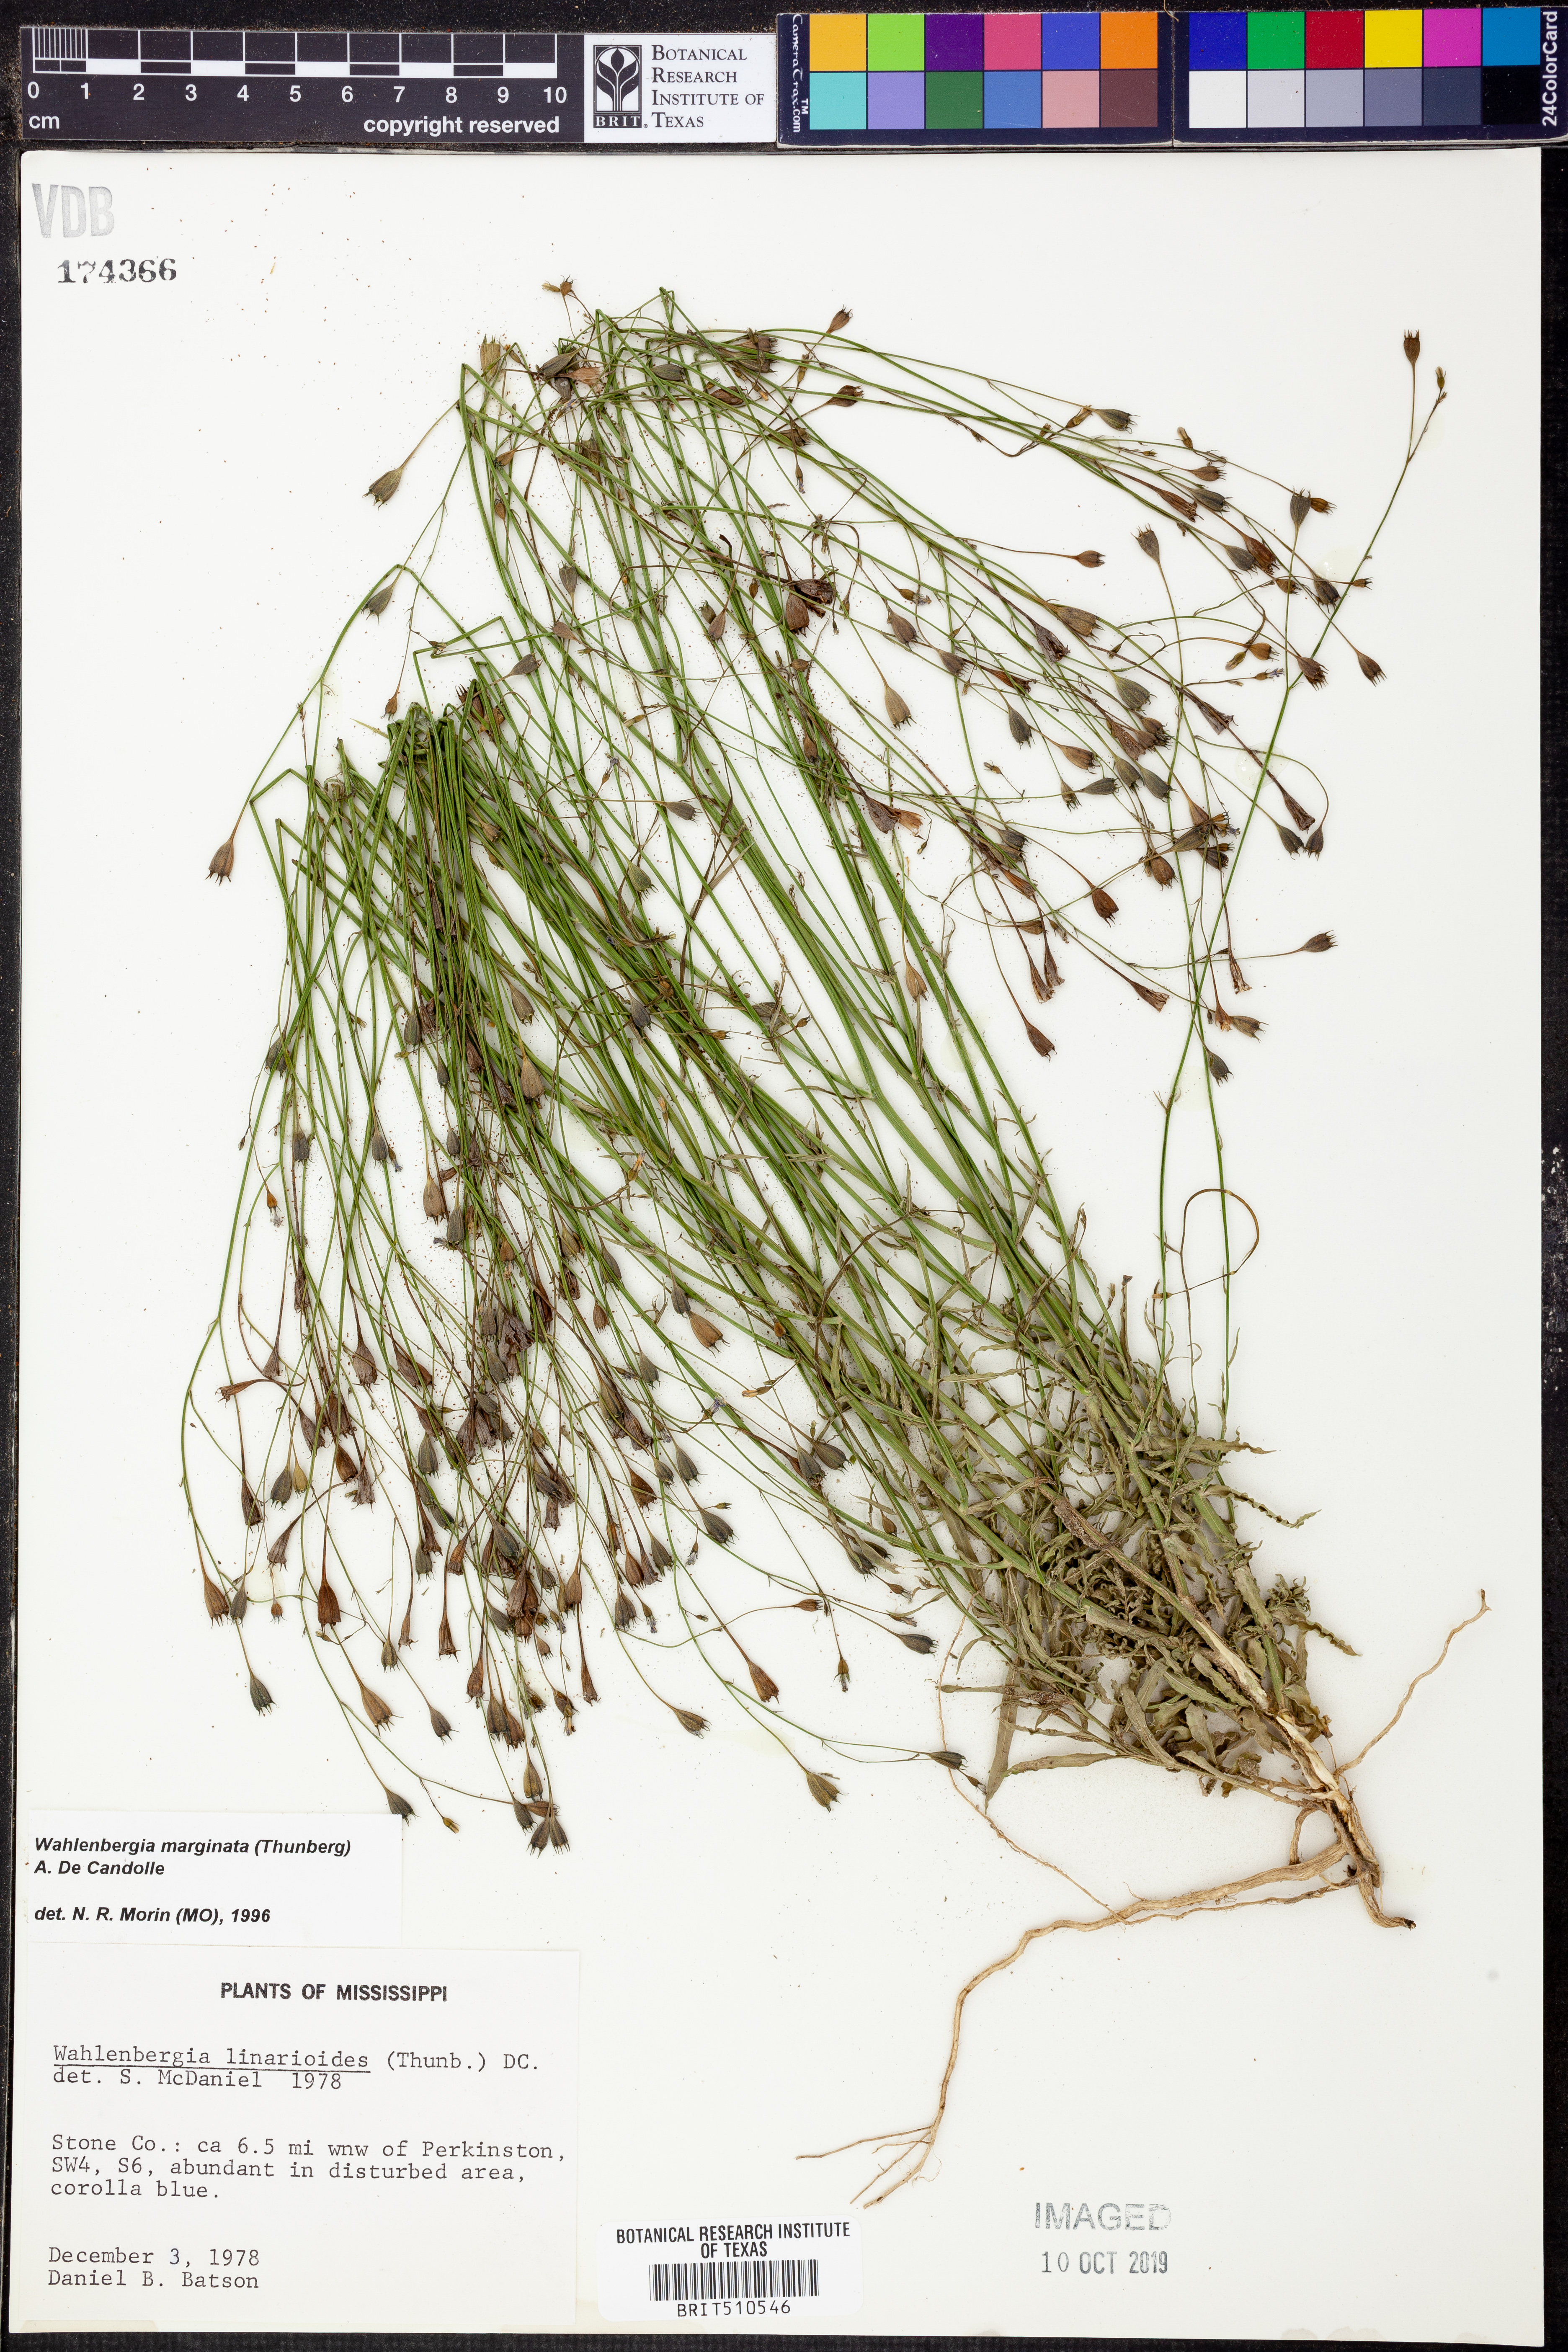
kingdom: Plantae
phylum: Tracheophyta
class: Magnoliopsida
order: Asterales
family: Campanulaceae
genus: Wahlenbergia
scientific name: Wahlenbergia marginata
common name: Southern rockbell
